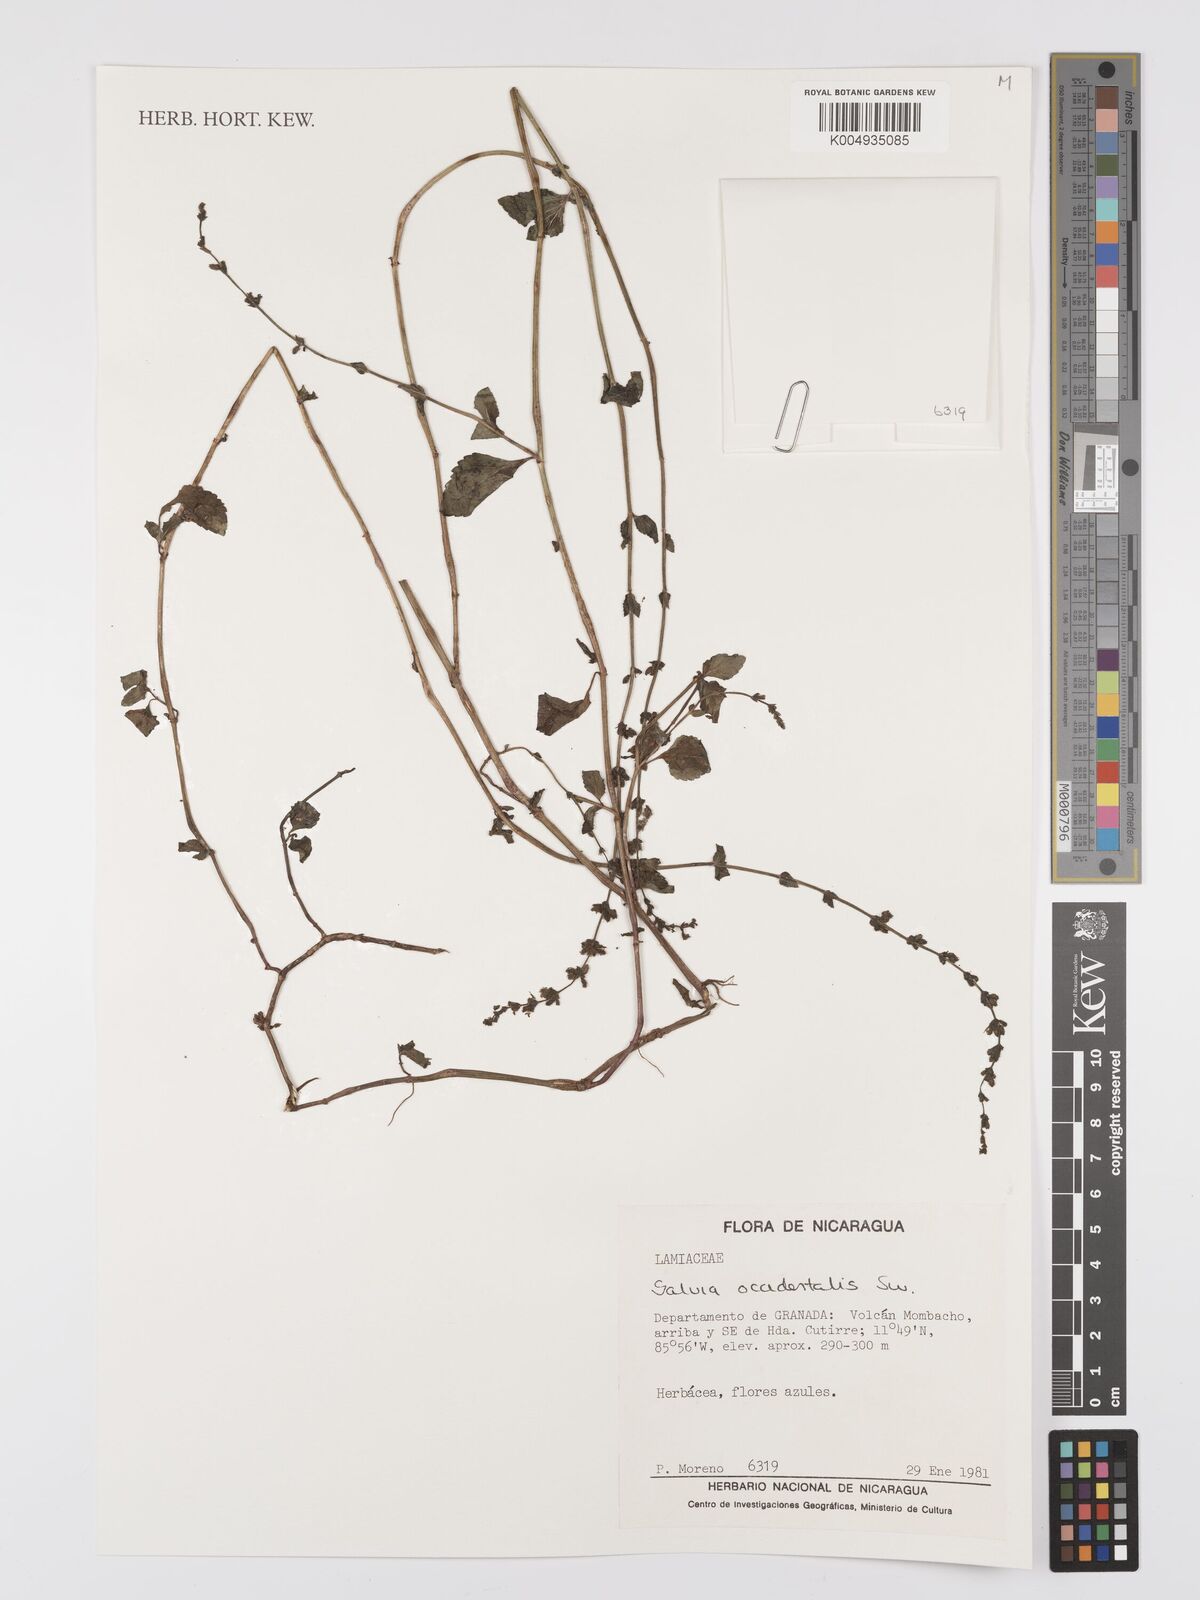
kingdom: Plantae
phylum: Tracheophyta
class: Magnoliopsida
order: Lamiales
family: Lamiaceae
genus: Salvia
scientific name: Salvia occidentalis
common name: West indian sage
